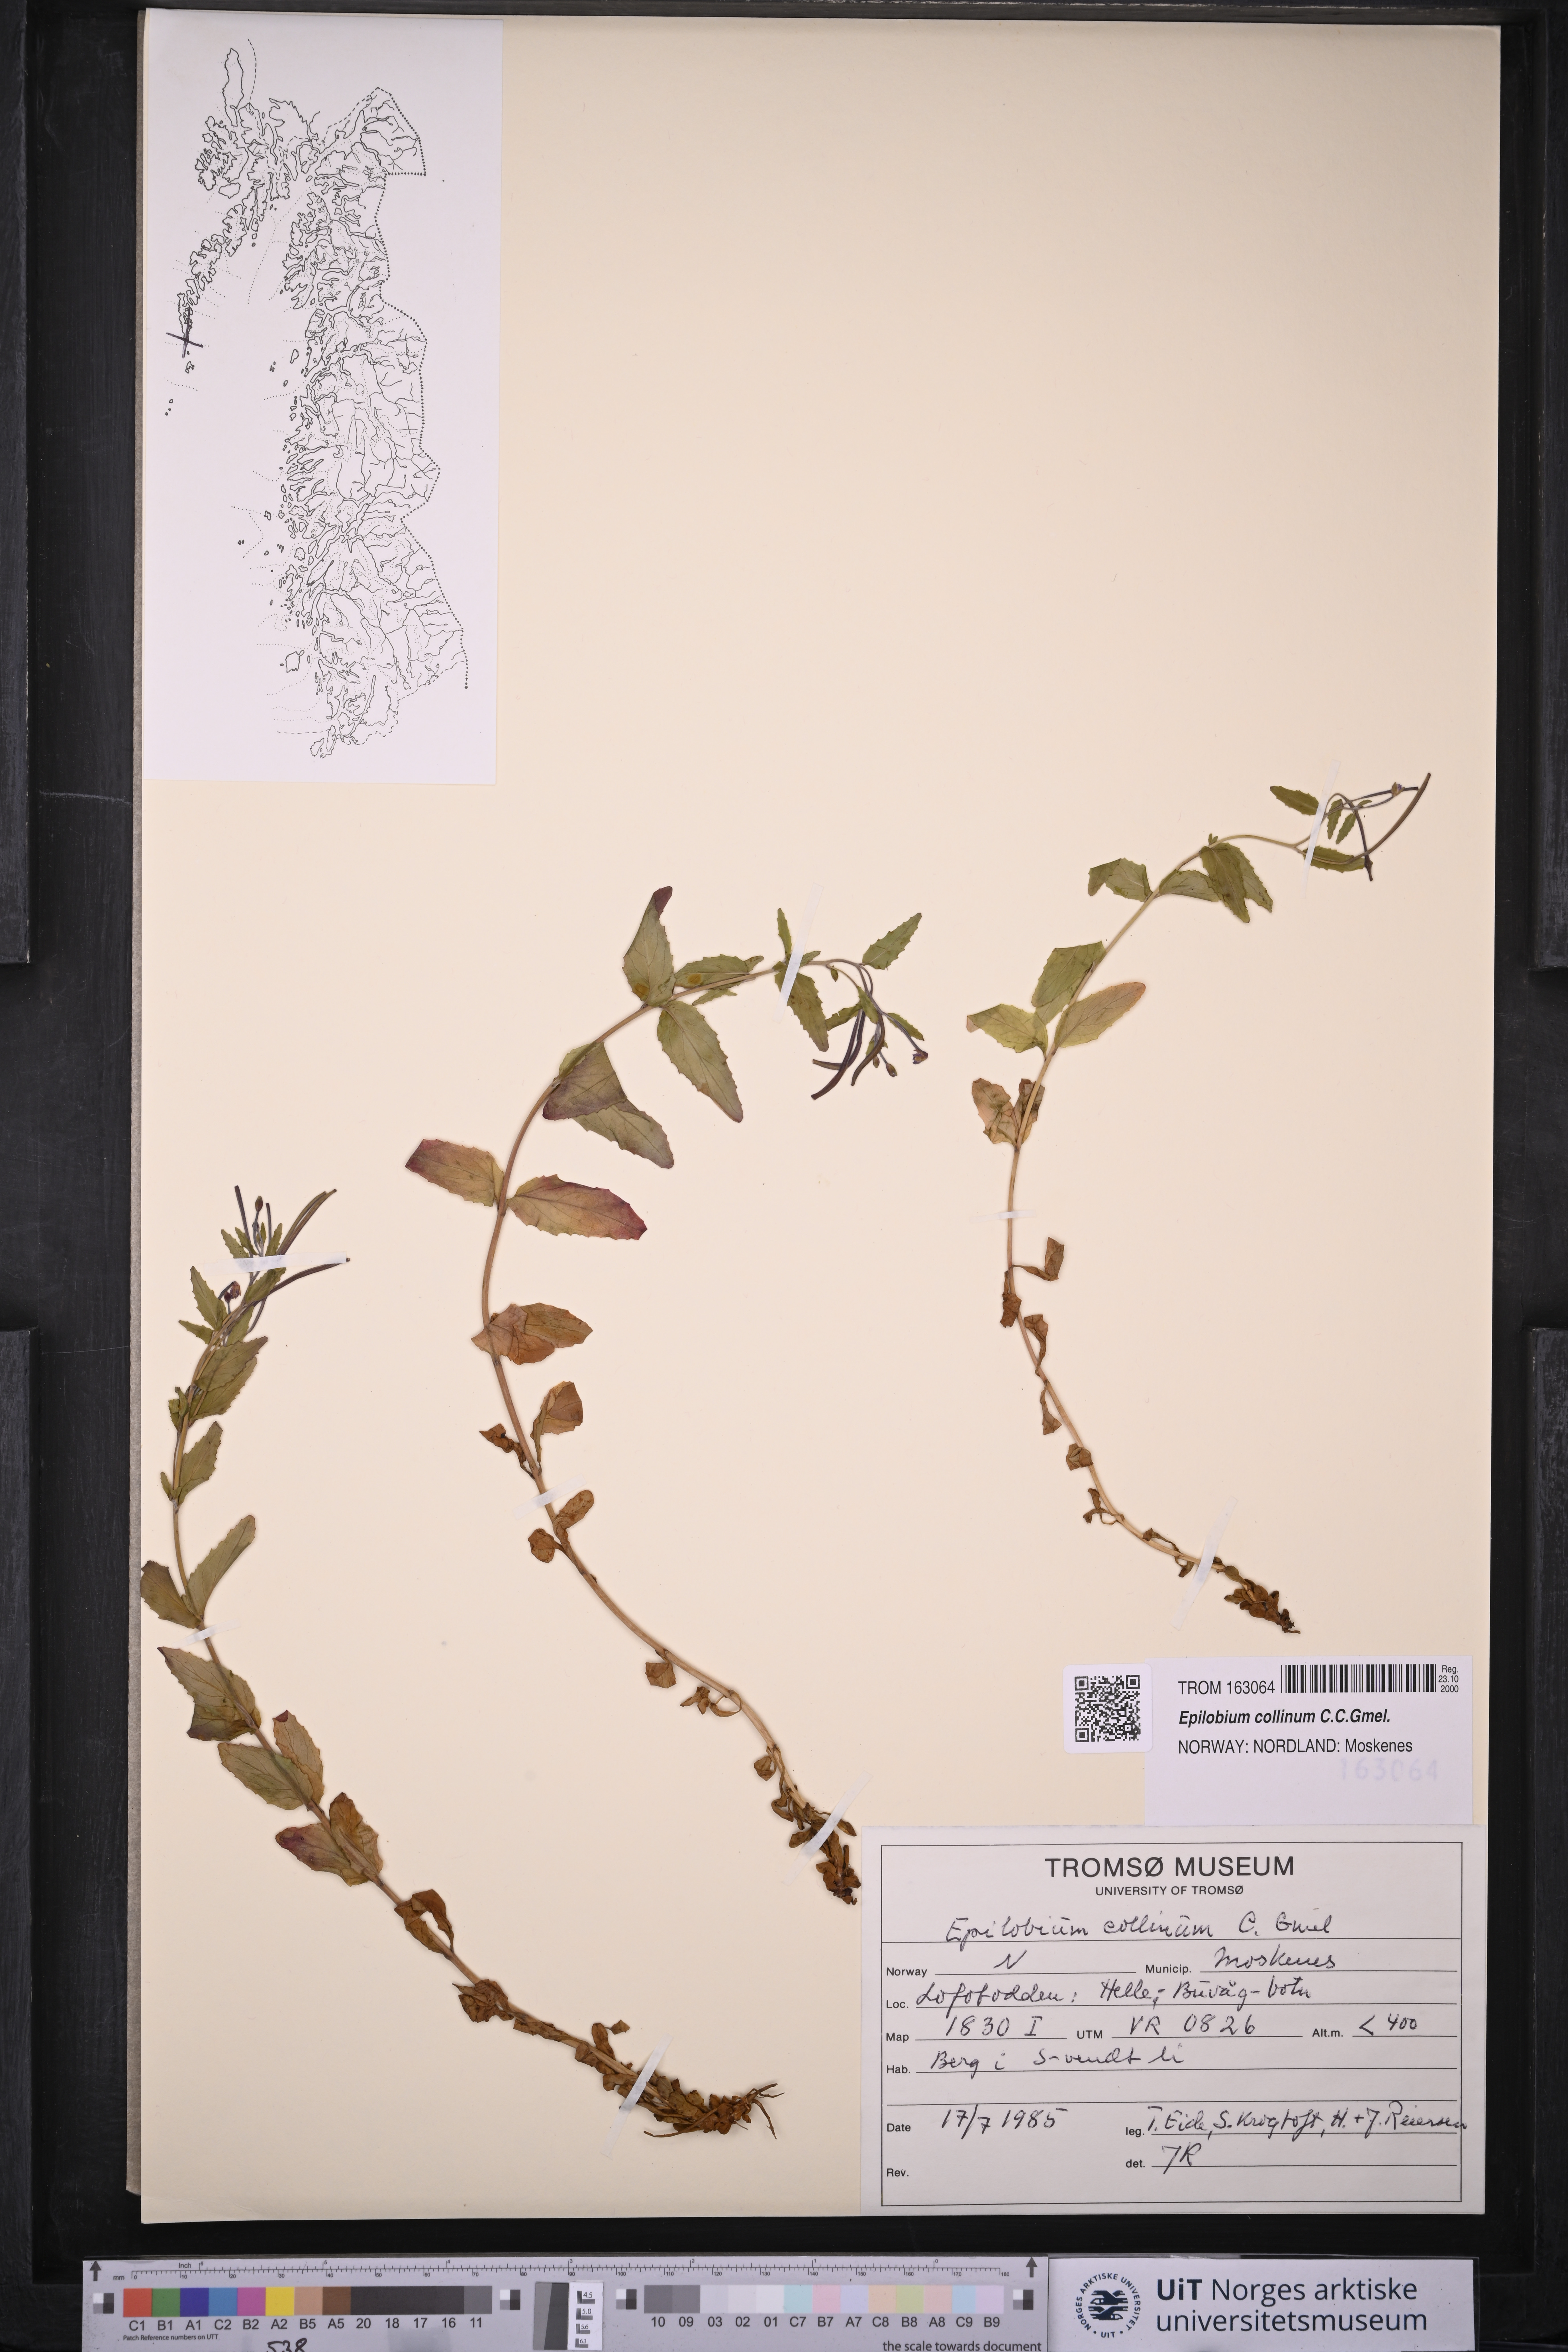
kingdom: Plantae
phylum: Tracheophyta
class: Magnoliopsida
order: Myrtales
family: Onagraceae
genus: Epilobium
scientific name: Epilobium collinum
